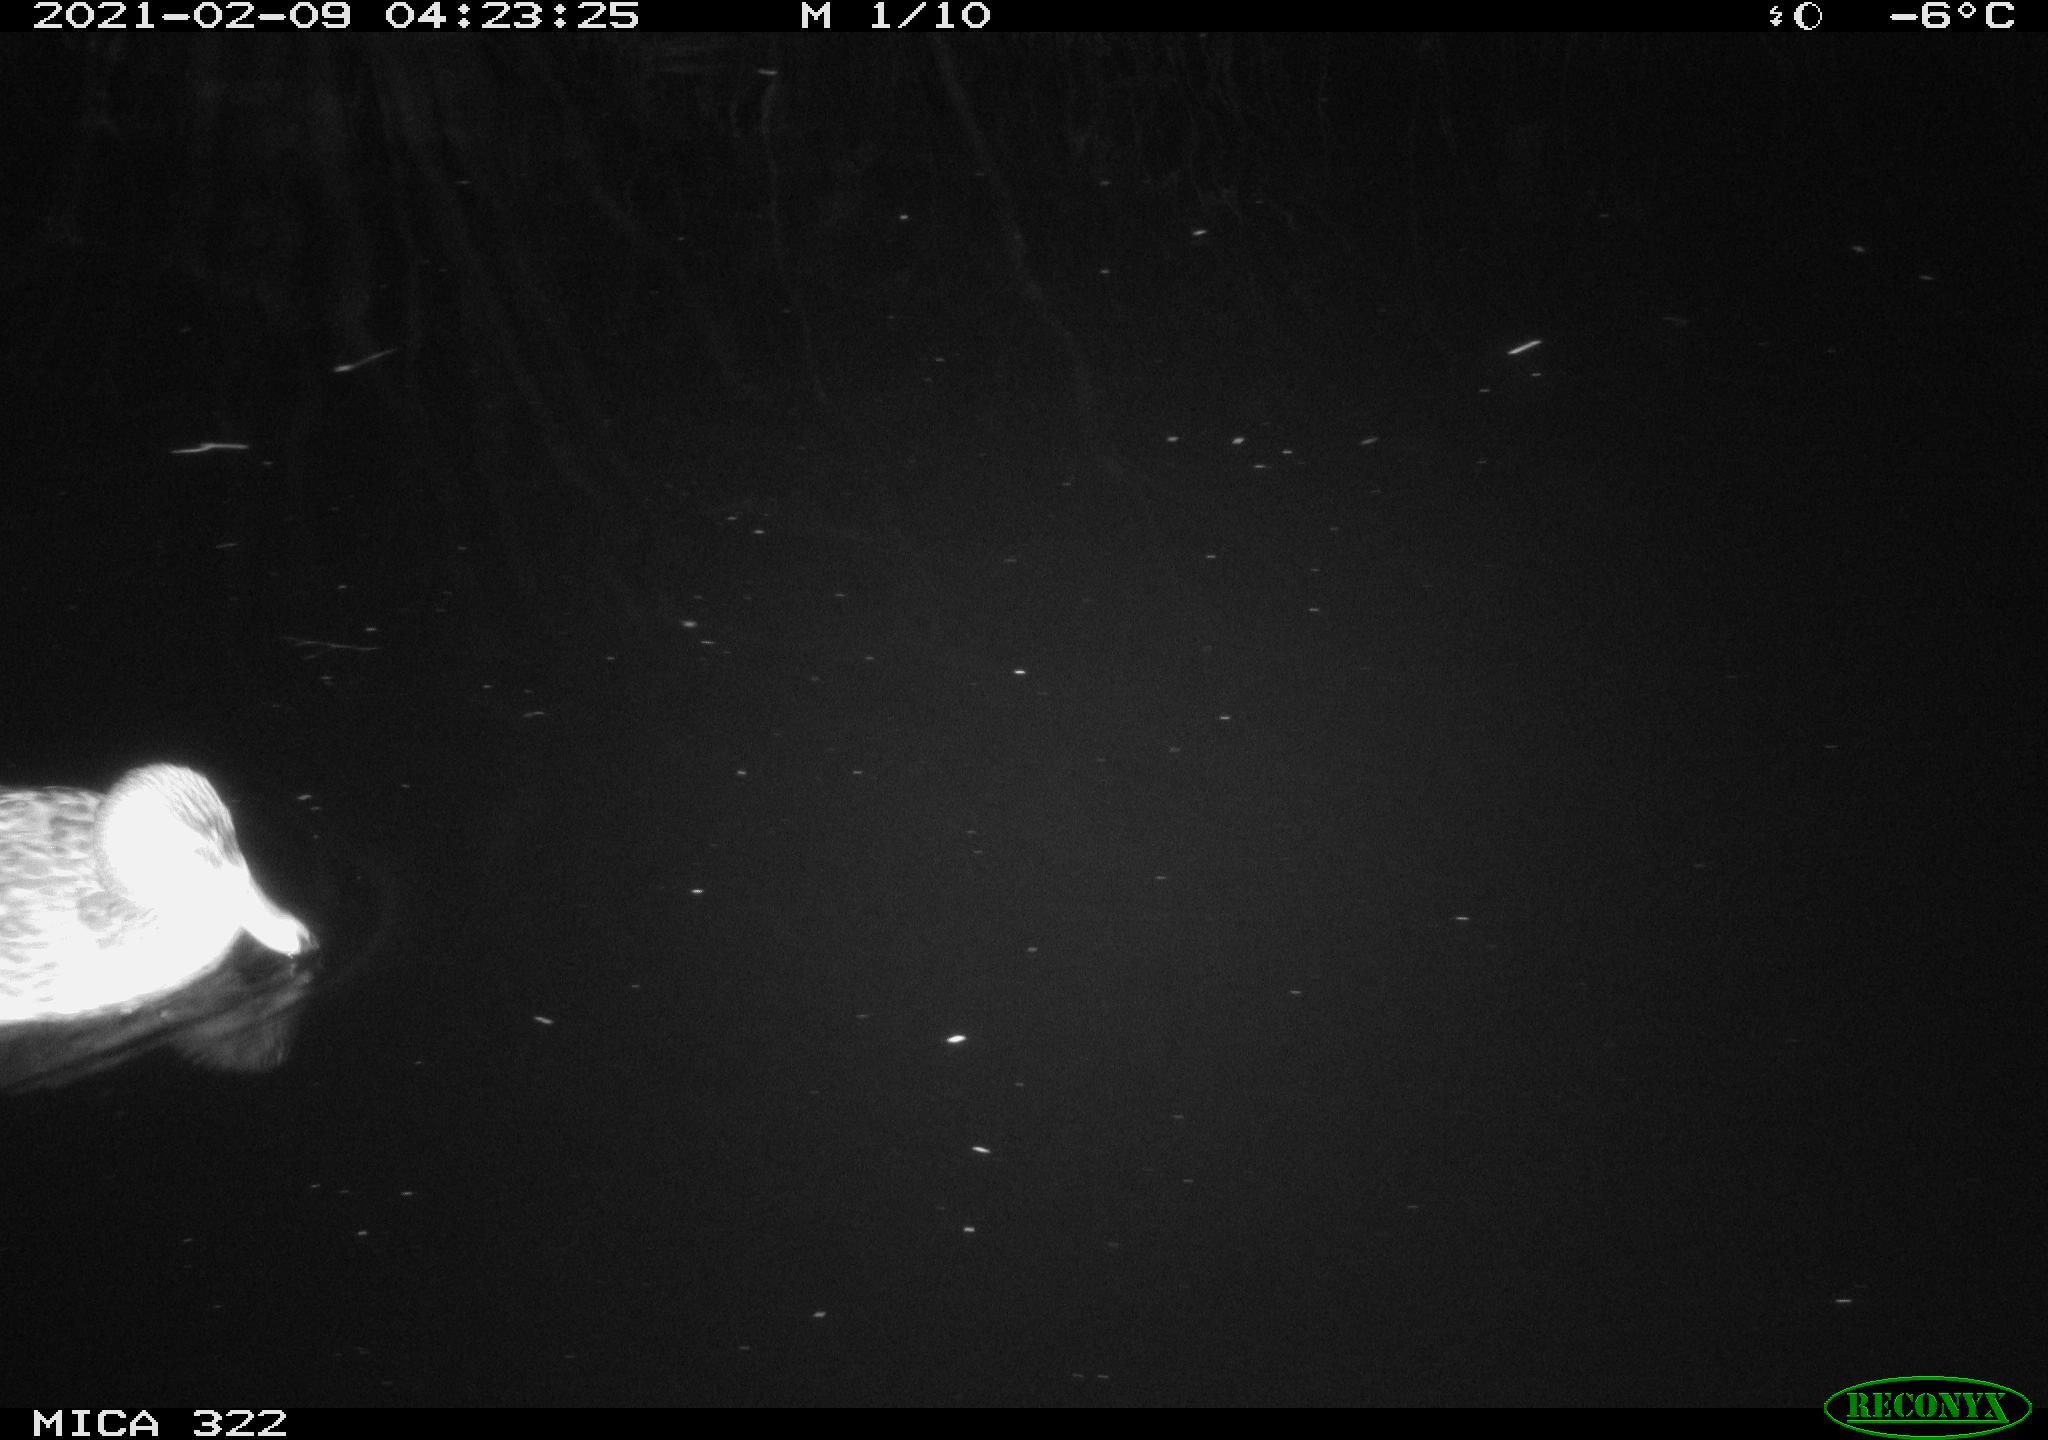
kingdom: Animalia
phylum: Chordata
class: Aves
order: Anseriformes
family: Anatidae
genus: Anas
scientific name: Anas platyrhynchos
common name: Mallard
